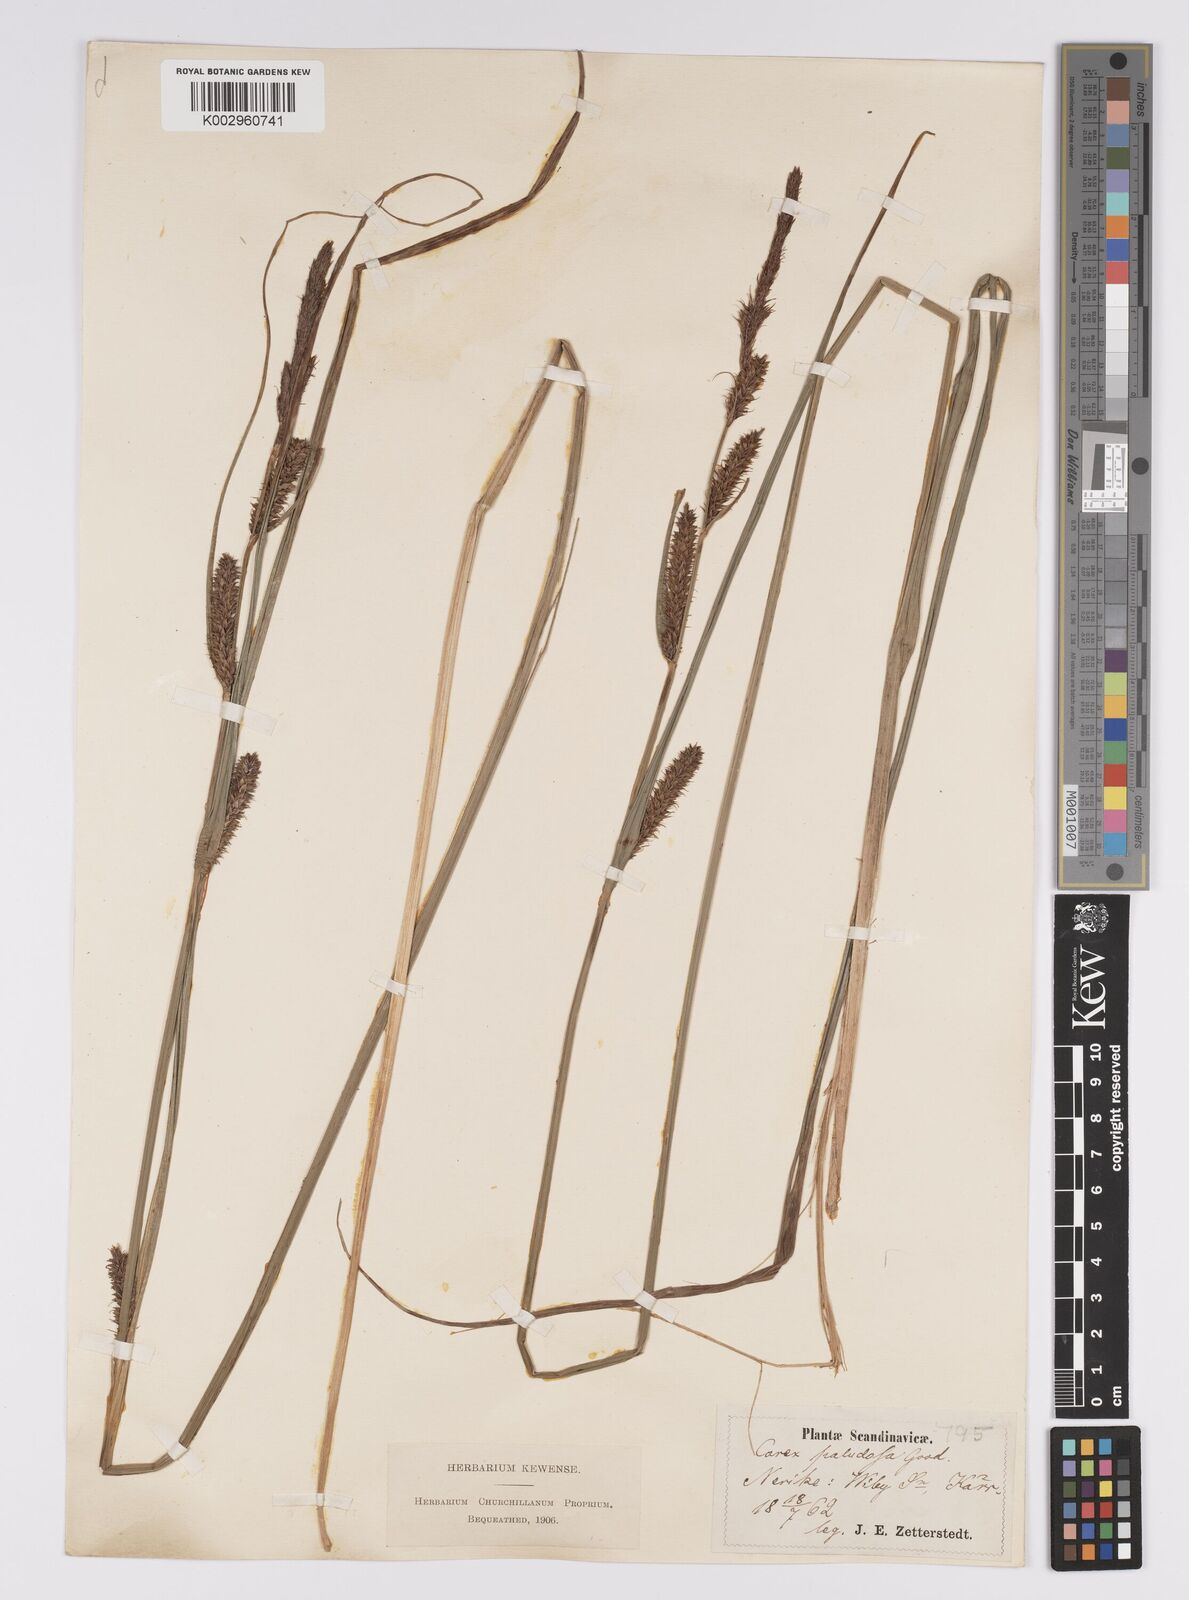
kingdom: Plantae
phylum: Tracheophyta
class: Liliopsida
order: Poales
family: Cyperaceae
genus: Carex
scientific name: Carex acutiformis
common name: Lesser pond-sedge
